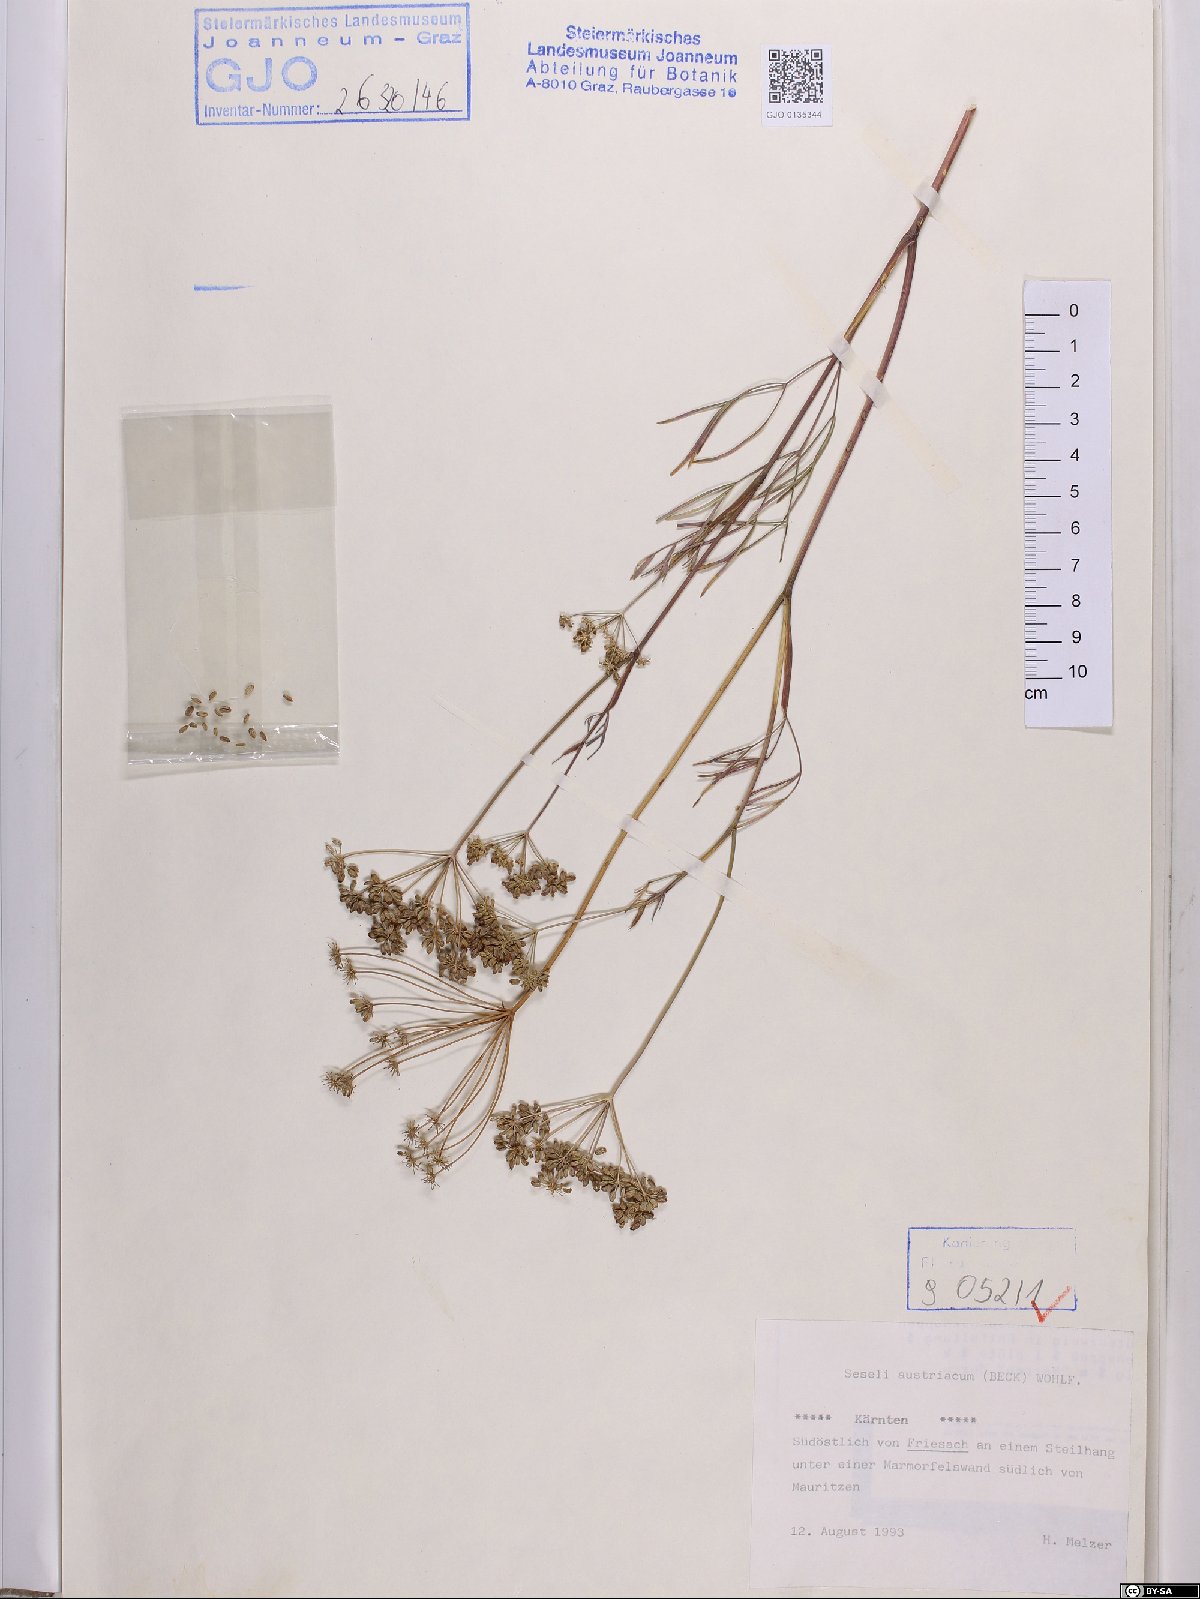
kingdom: Plantae
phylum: Tracheophyta
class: Magnoliopsida
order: Apiales
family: Apiaceae
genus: Seseli
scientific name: Seseli austriacum
